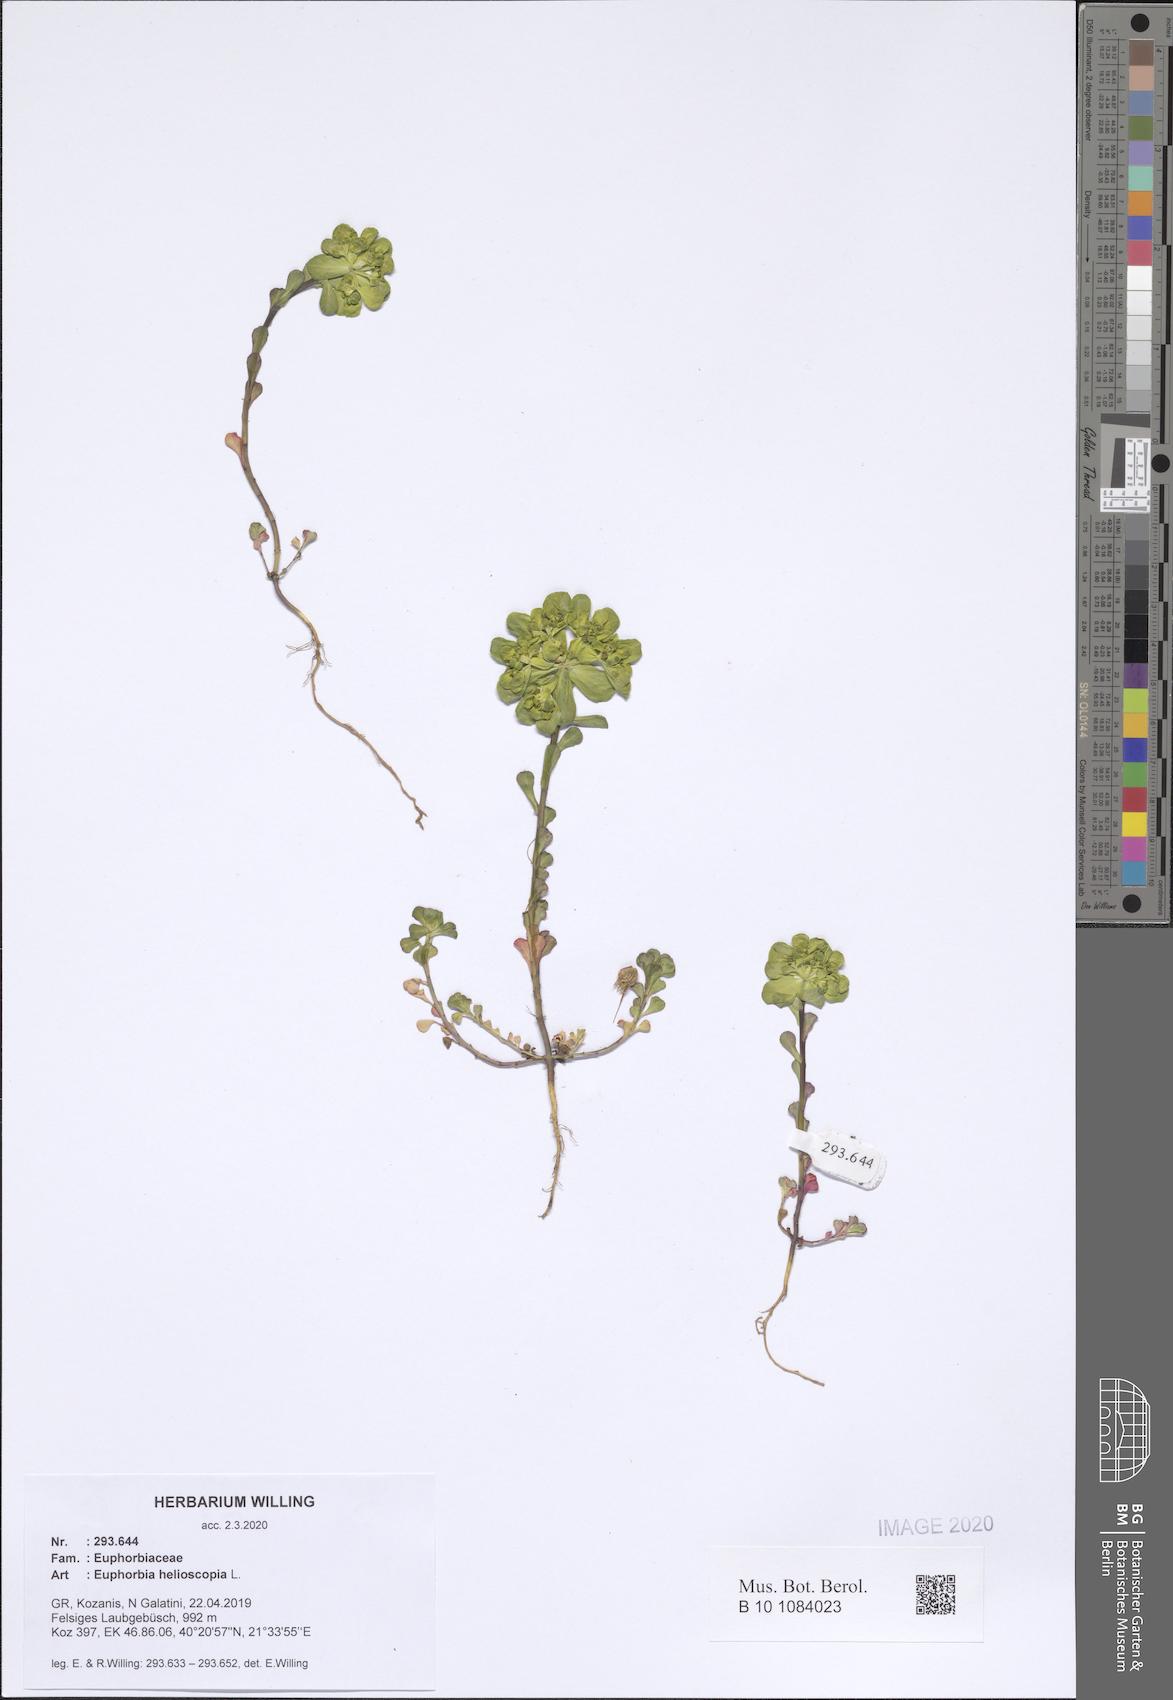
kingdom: Plantae
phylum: Tracheophyta
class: Magnoliopsida
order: Malpighiales
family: Euphorbiaceae
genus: Euphorbia
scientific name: Euphorbia helioscopia
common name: Sun spurge
